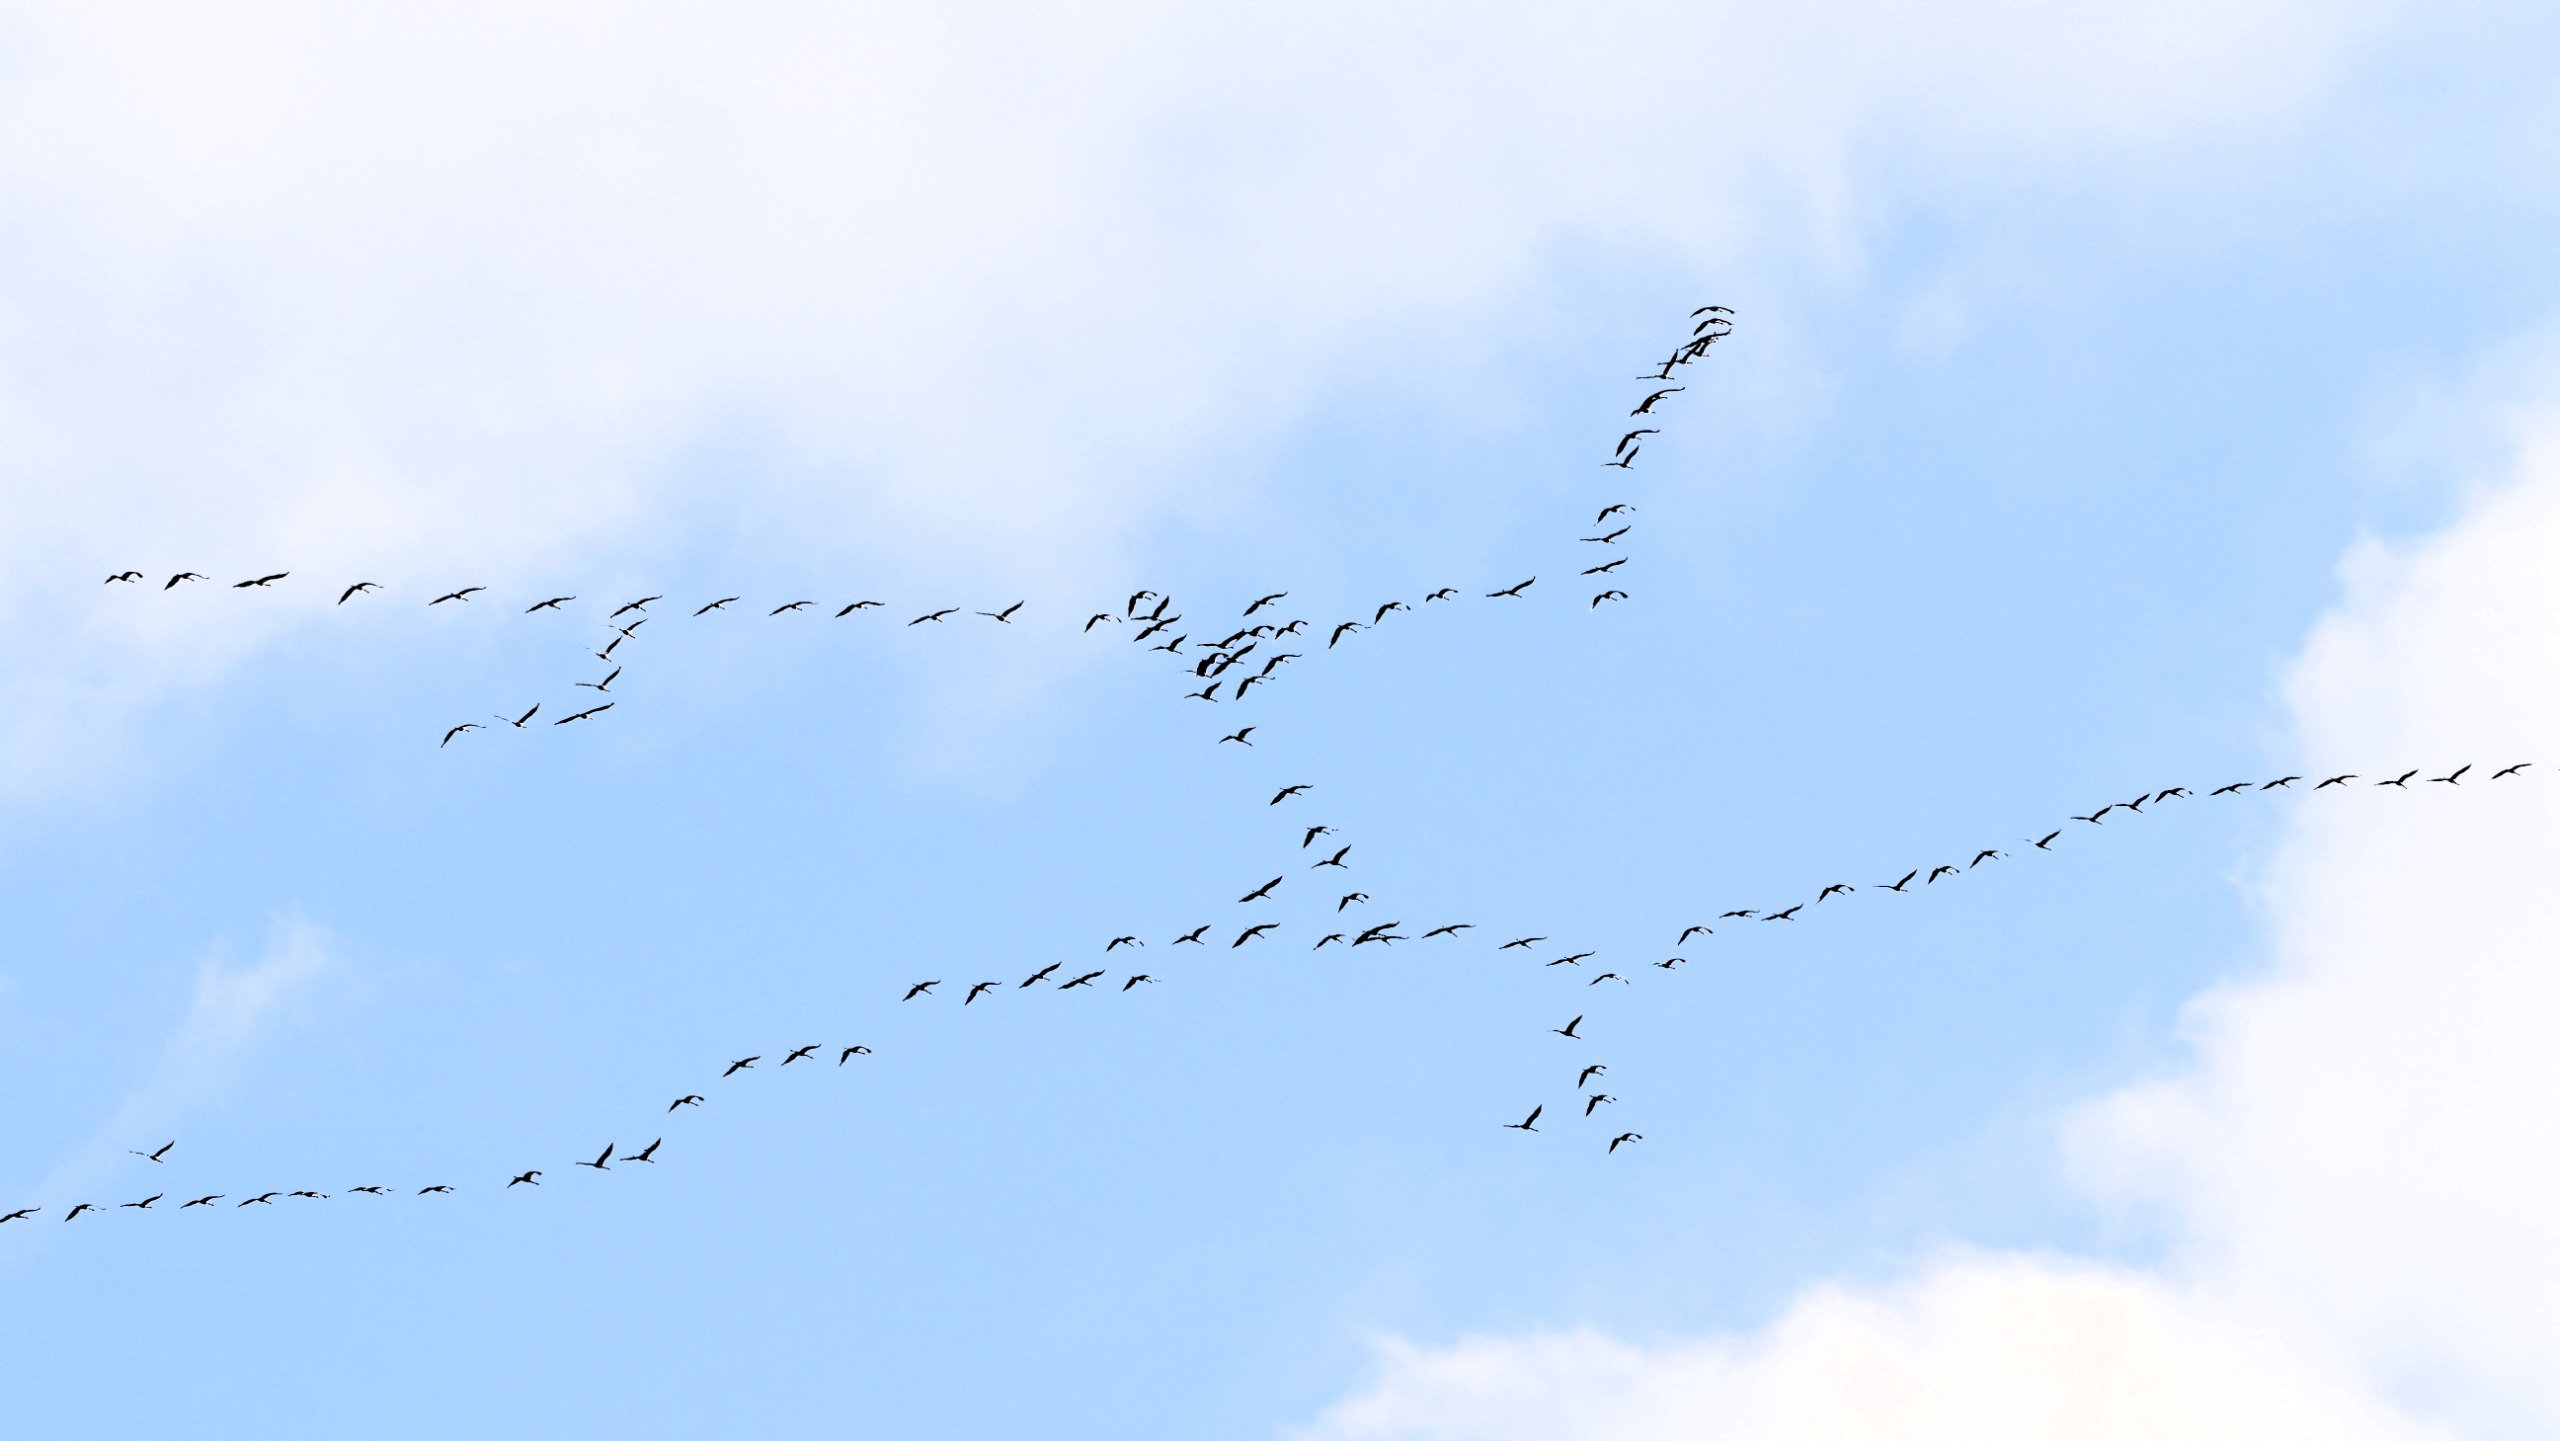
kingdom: Animalia
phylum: Chordata
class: Aves
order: Gruiformes
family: Gruidae
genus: Grus
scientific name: Grus grus
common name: Trane
